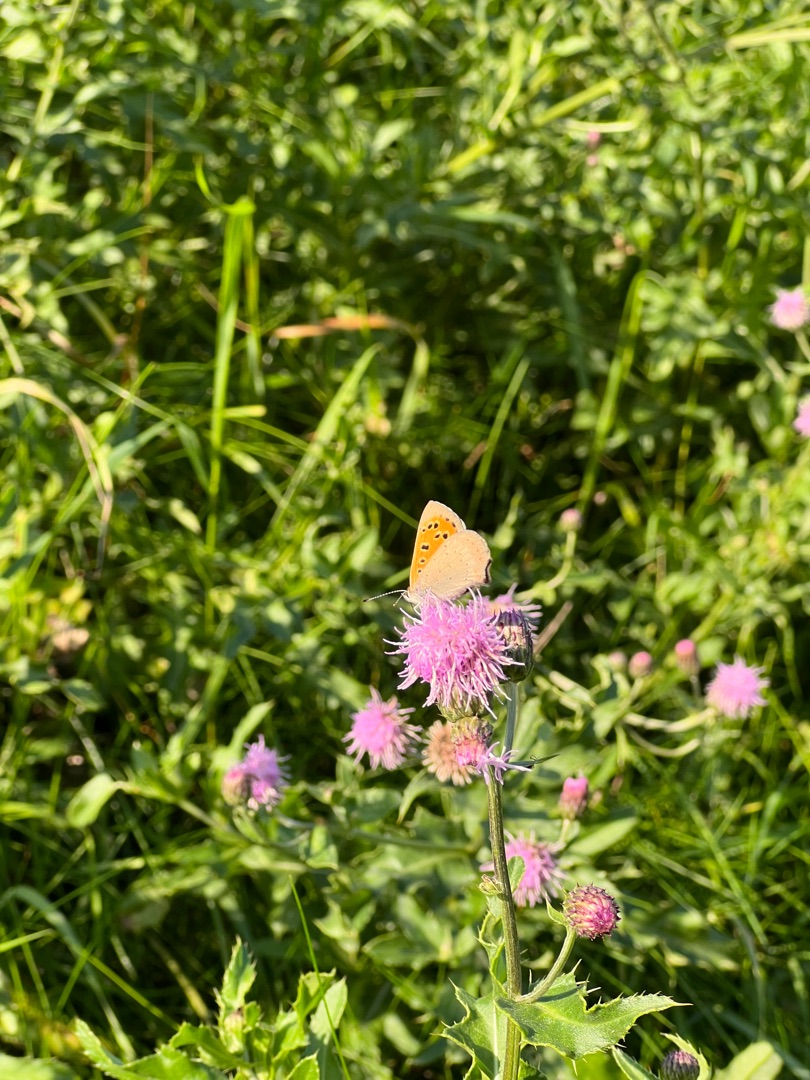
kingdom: Animalia
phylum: Arthropoda
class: Insecta
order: Lepidoptera
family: Lycaenidae
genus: Lycaena
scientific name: Lycaena phlaeas
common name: Lille ildfugl
